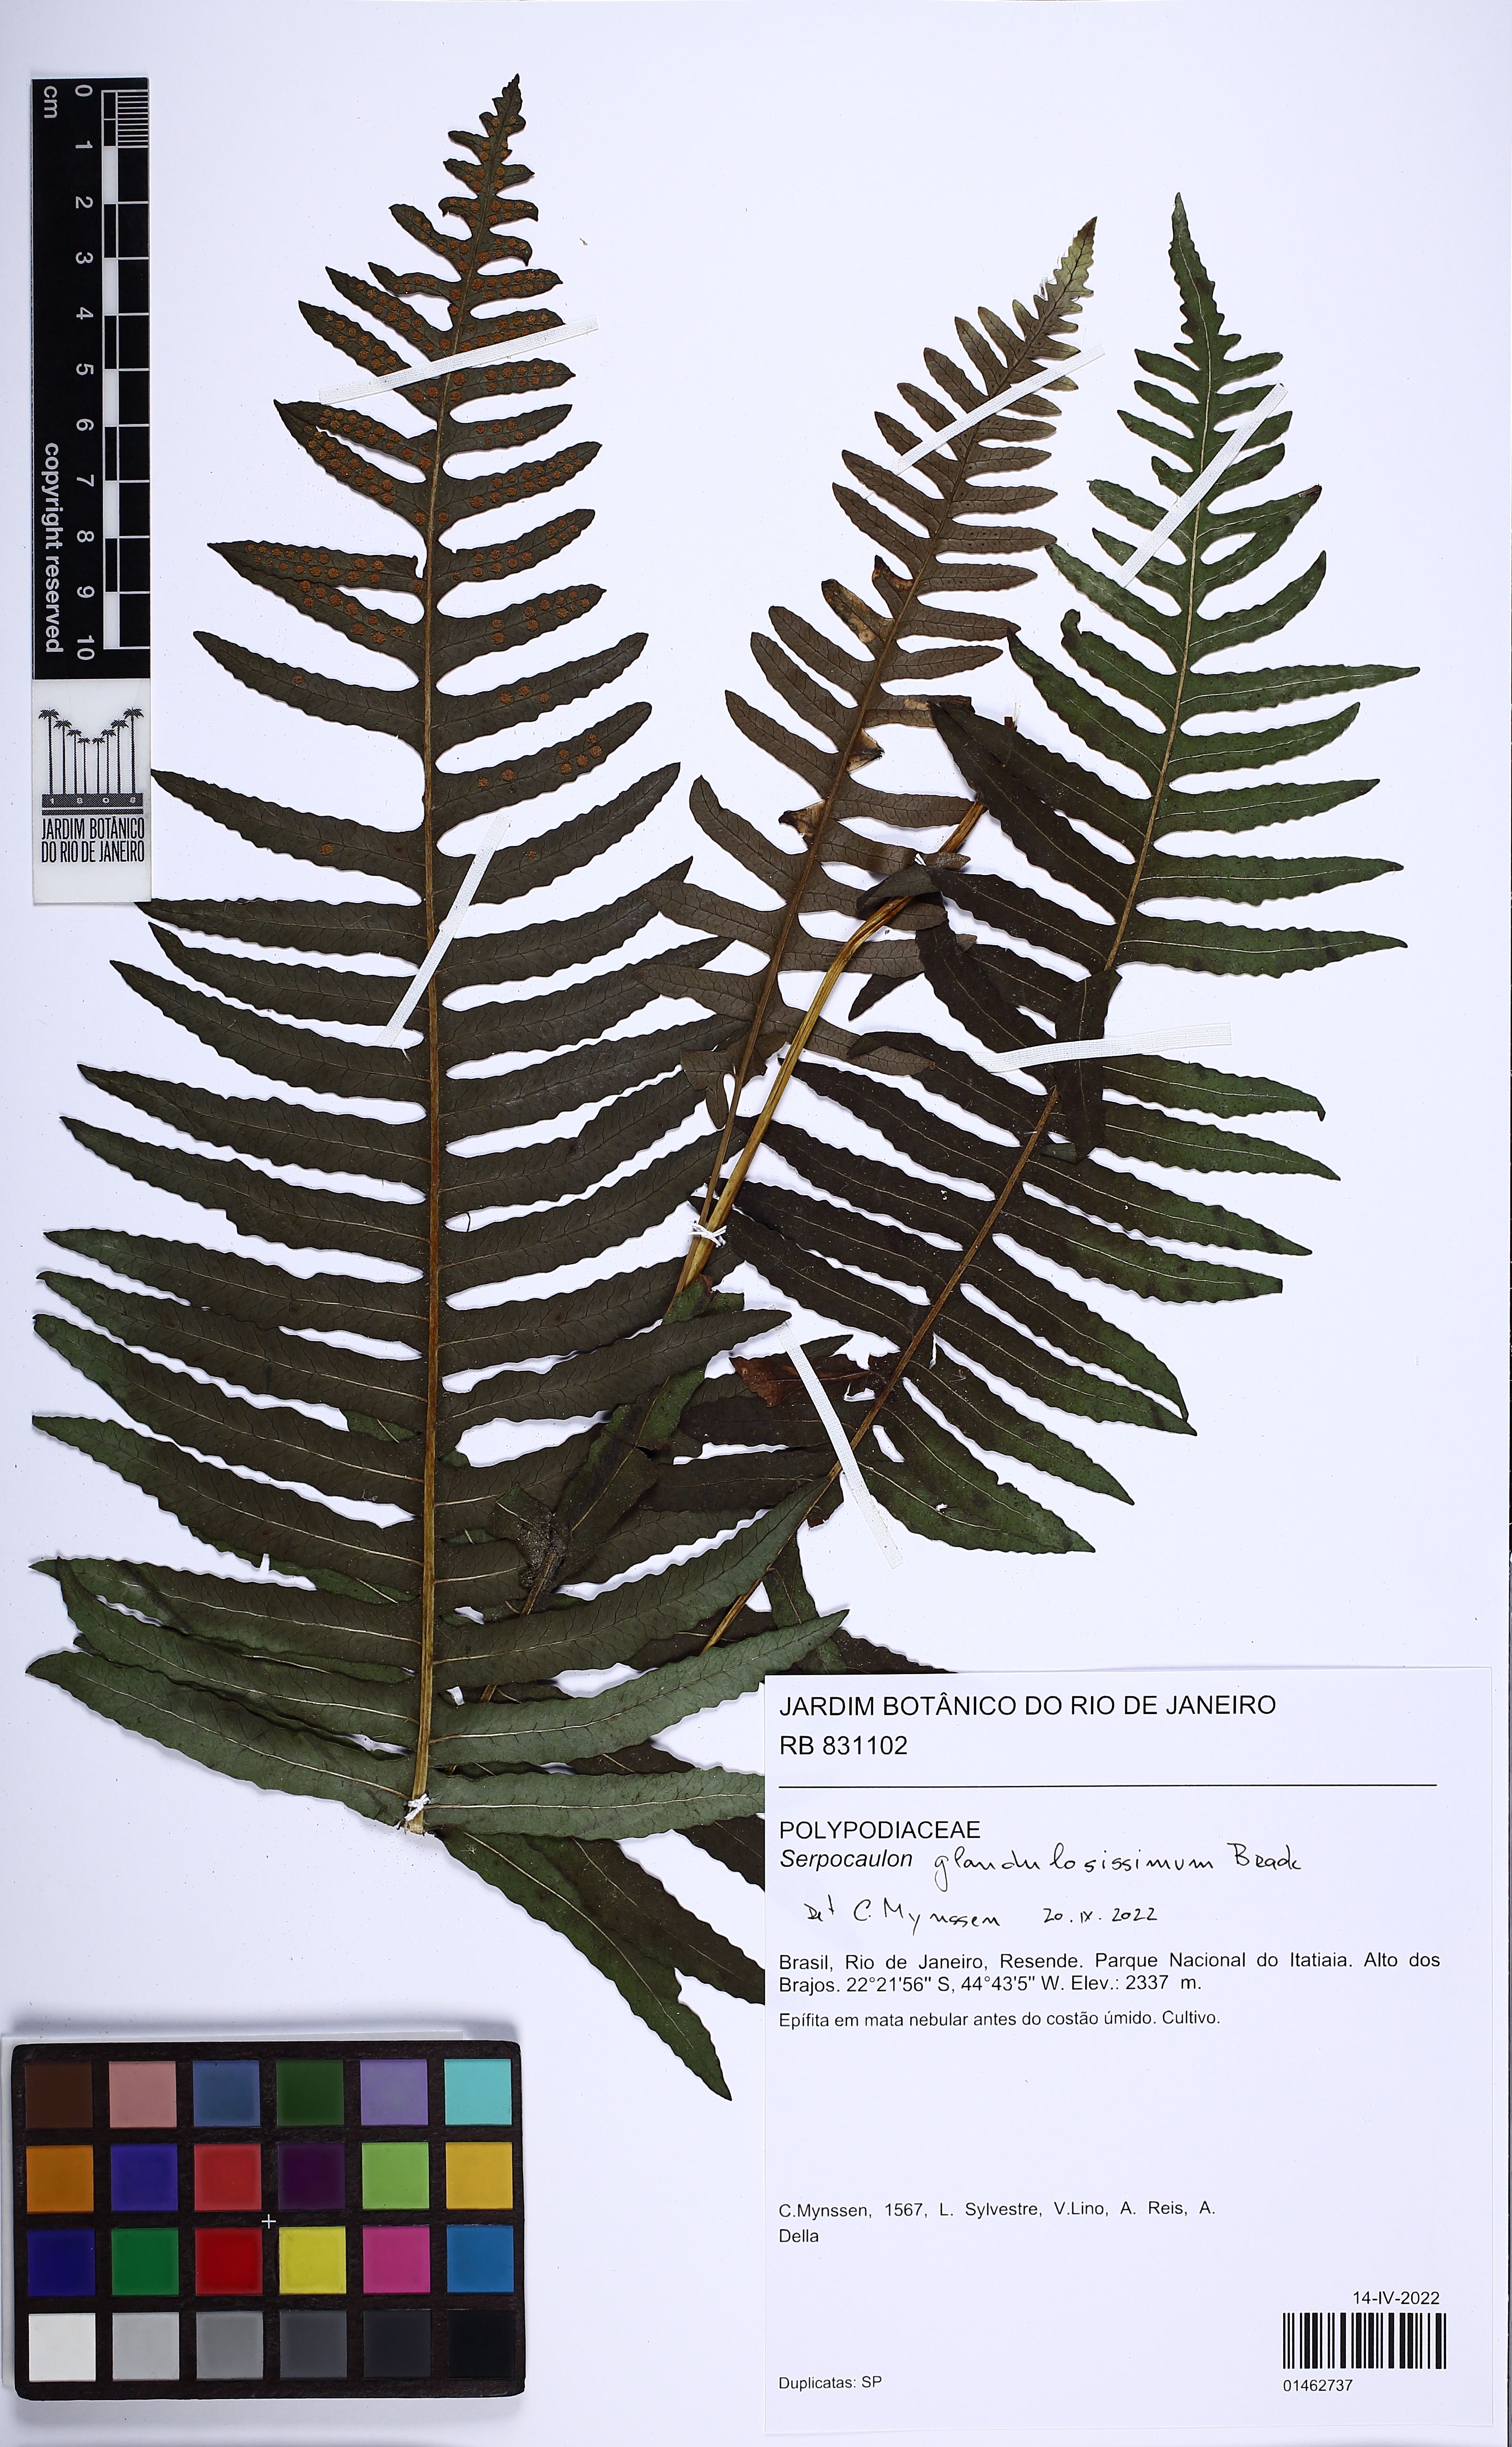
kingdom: Plantae
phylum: Tracheophyta
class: Polypodiopsida
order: Polypodiales
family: Polypodiaceae
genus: Serpocaulon
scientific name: Serpocaulon
